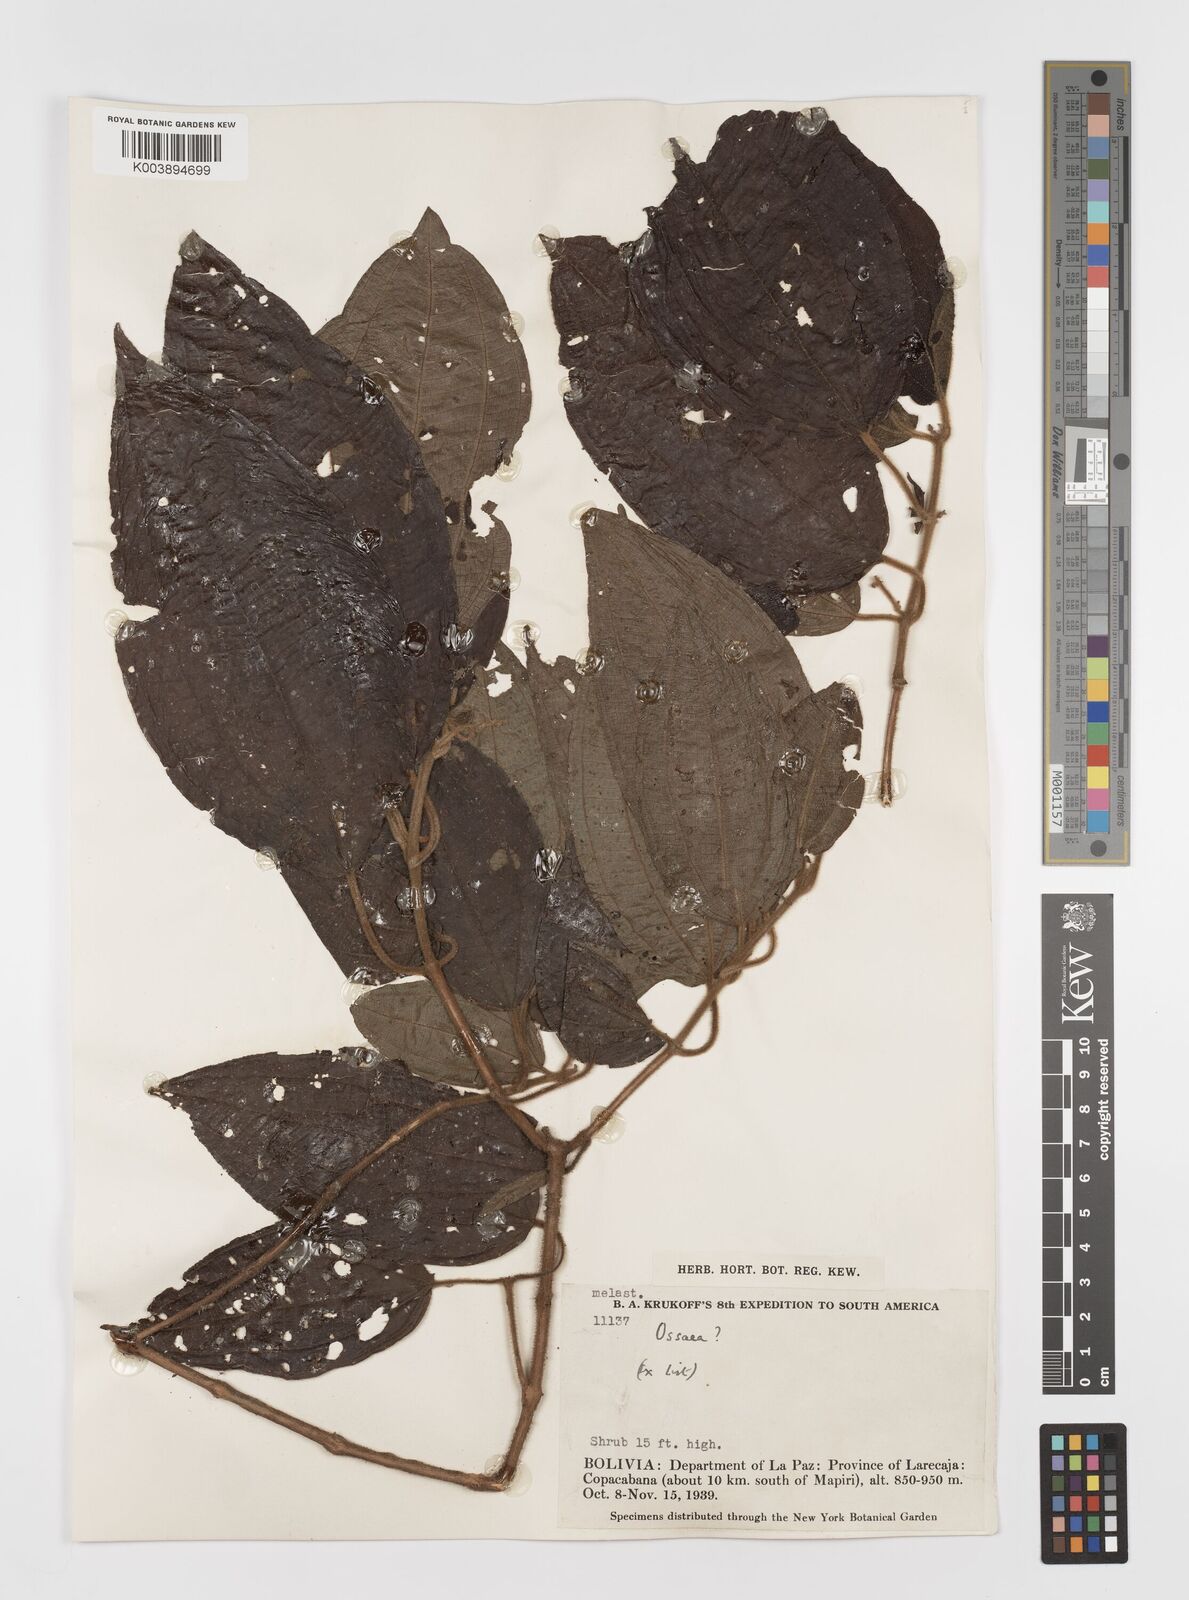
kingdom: Plantae
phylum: Tracheophyta
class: Magnoliopsida
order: Myrtales
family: Melastomataceae
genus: Ossaea
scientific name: Ossaea
